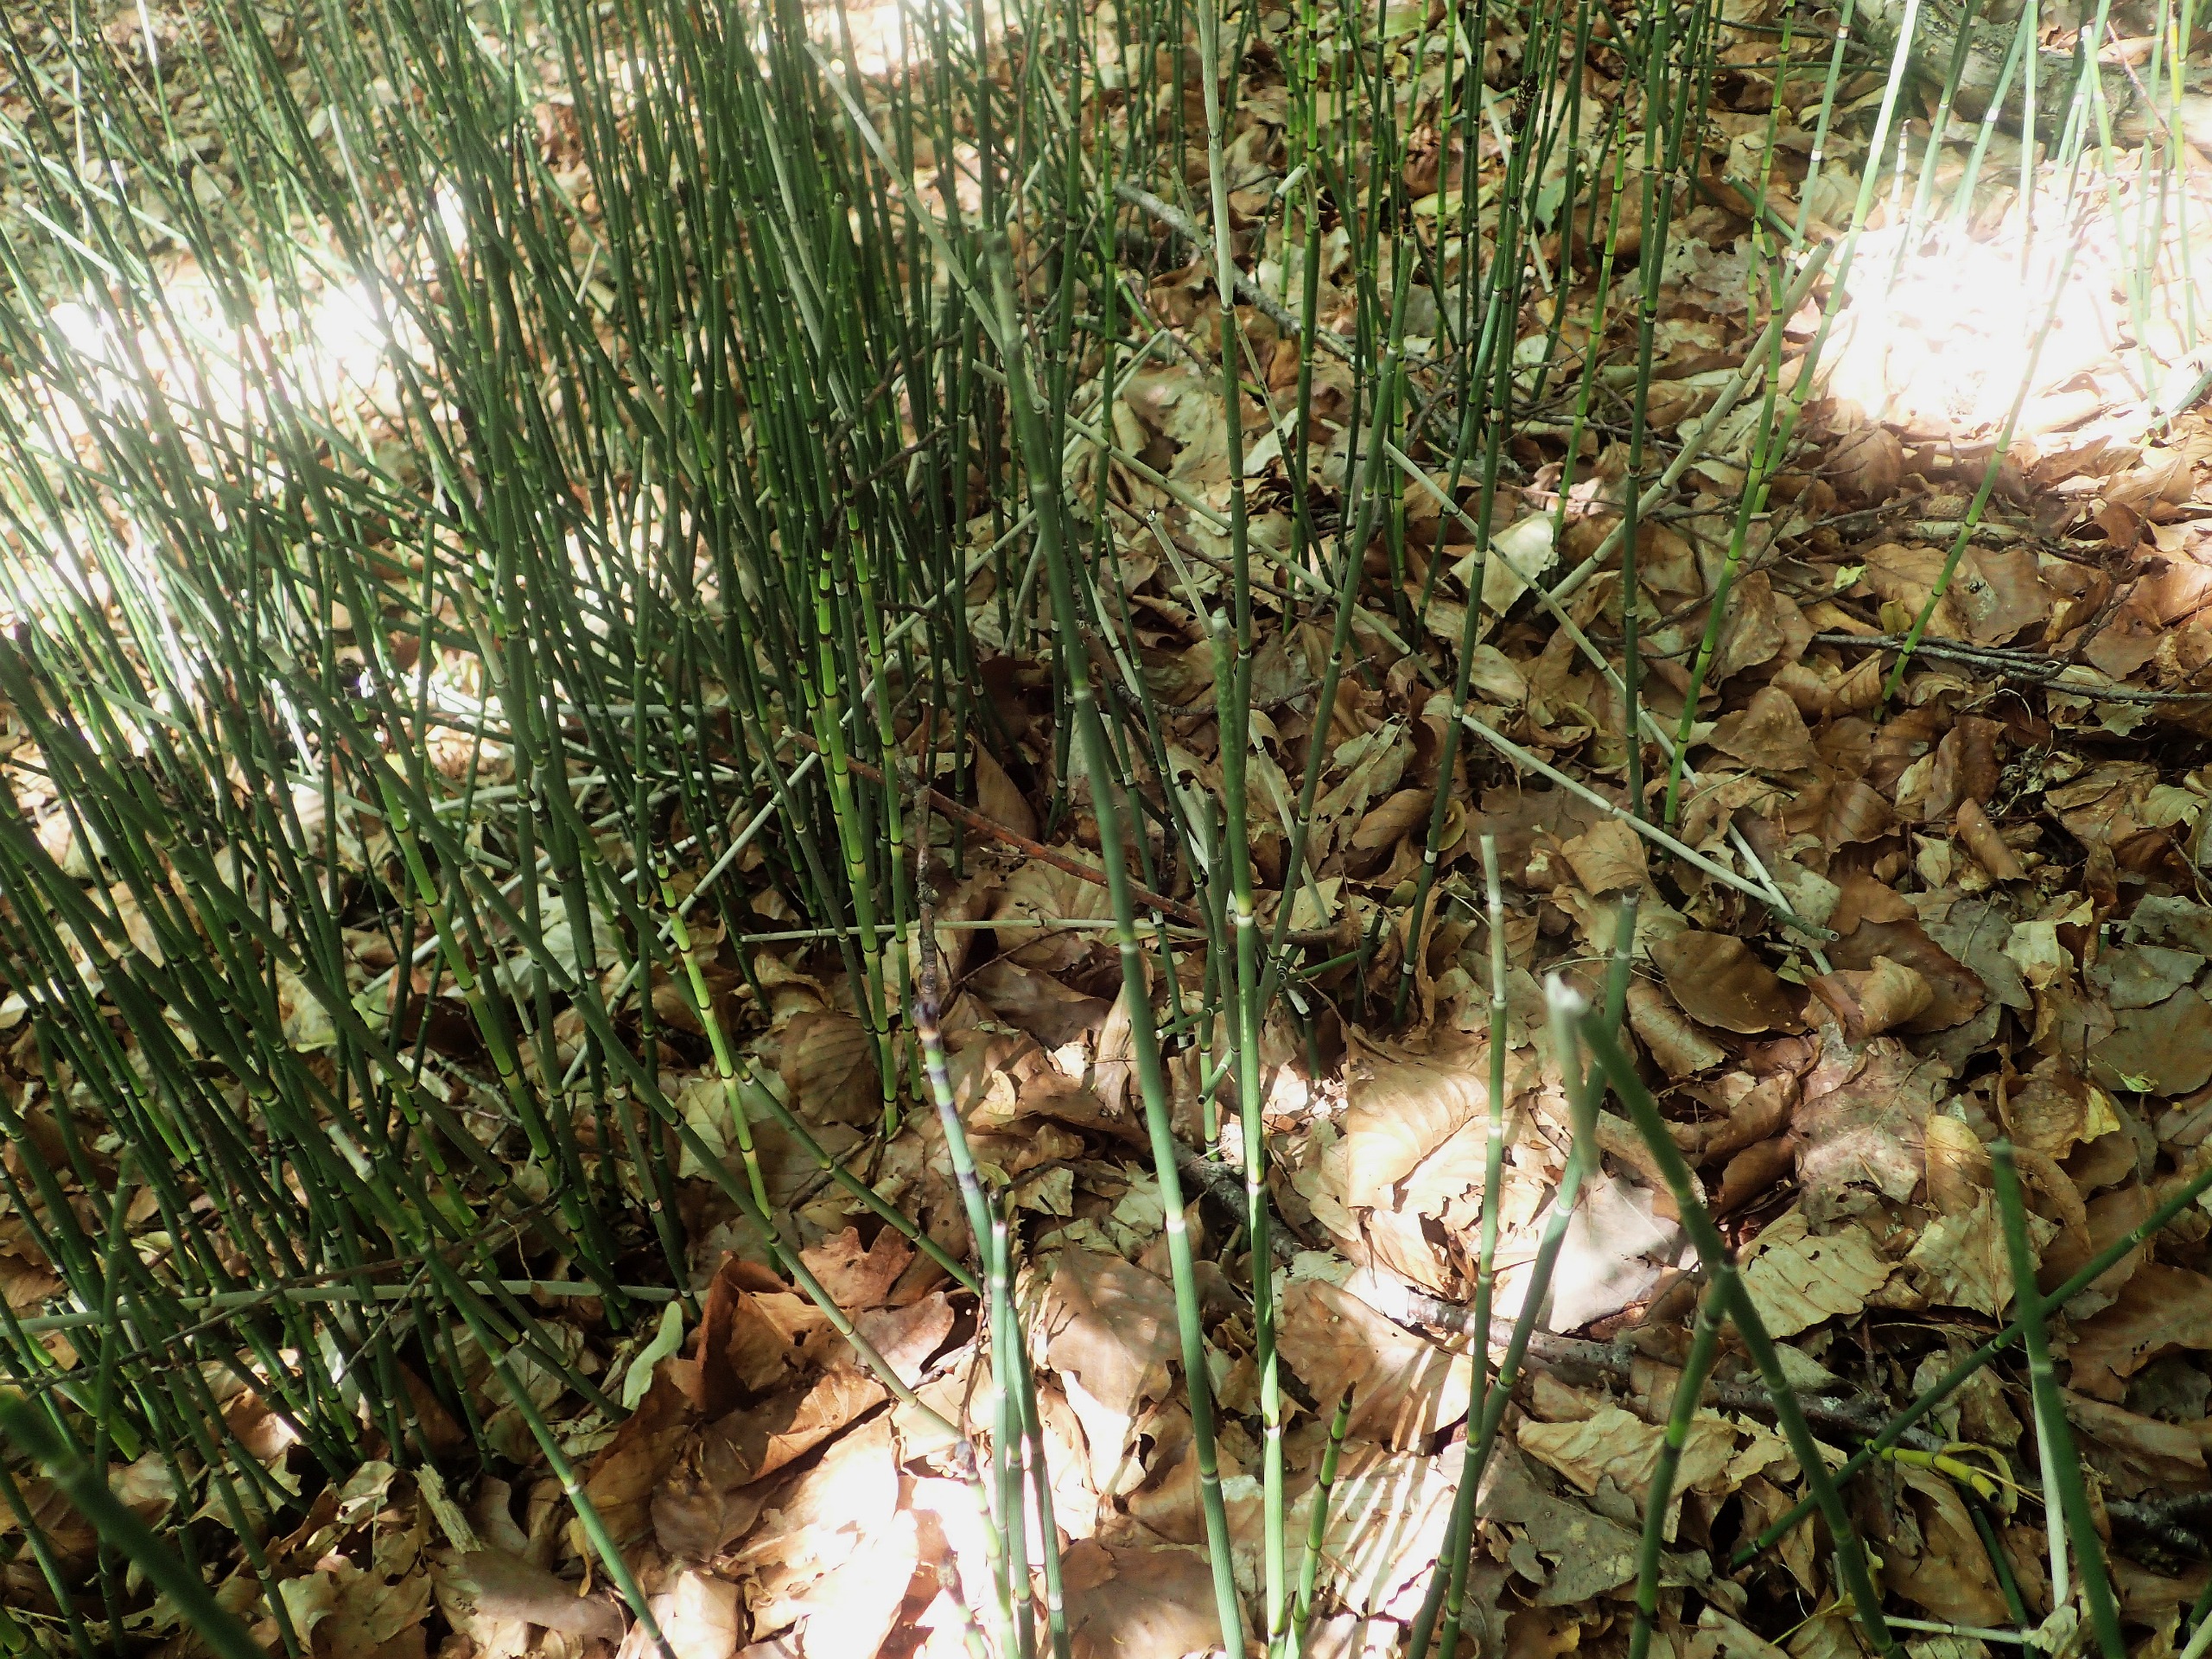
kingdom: Plantae
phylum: Tracheophyta
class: Polypodiopsida
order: Equisetales
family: Equisetaceae
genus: Equisetum
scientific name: Equisetum hyemale
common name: Skavgræs
